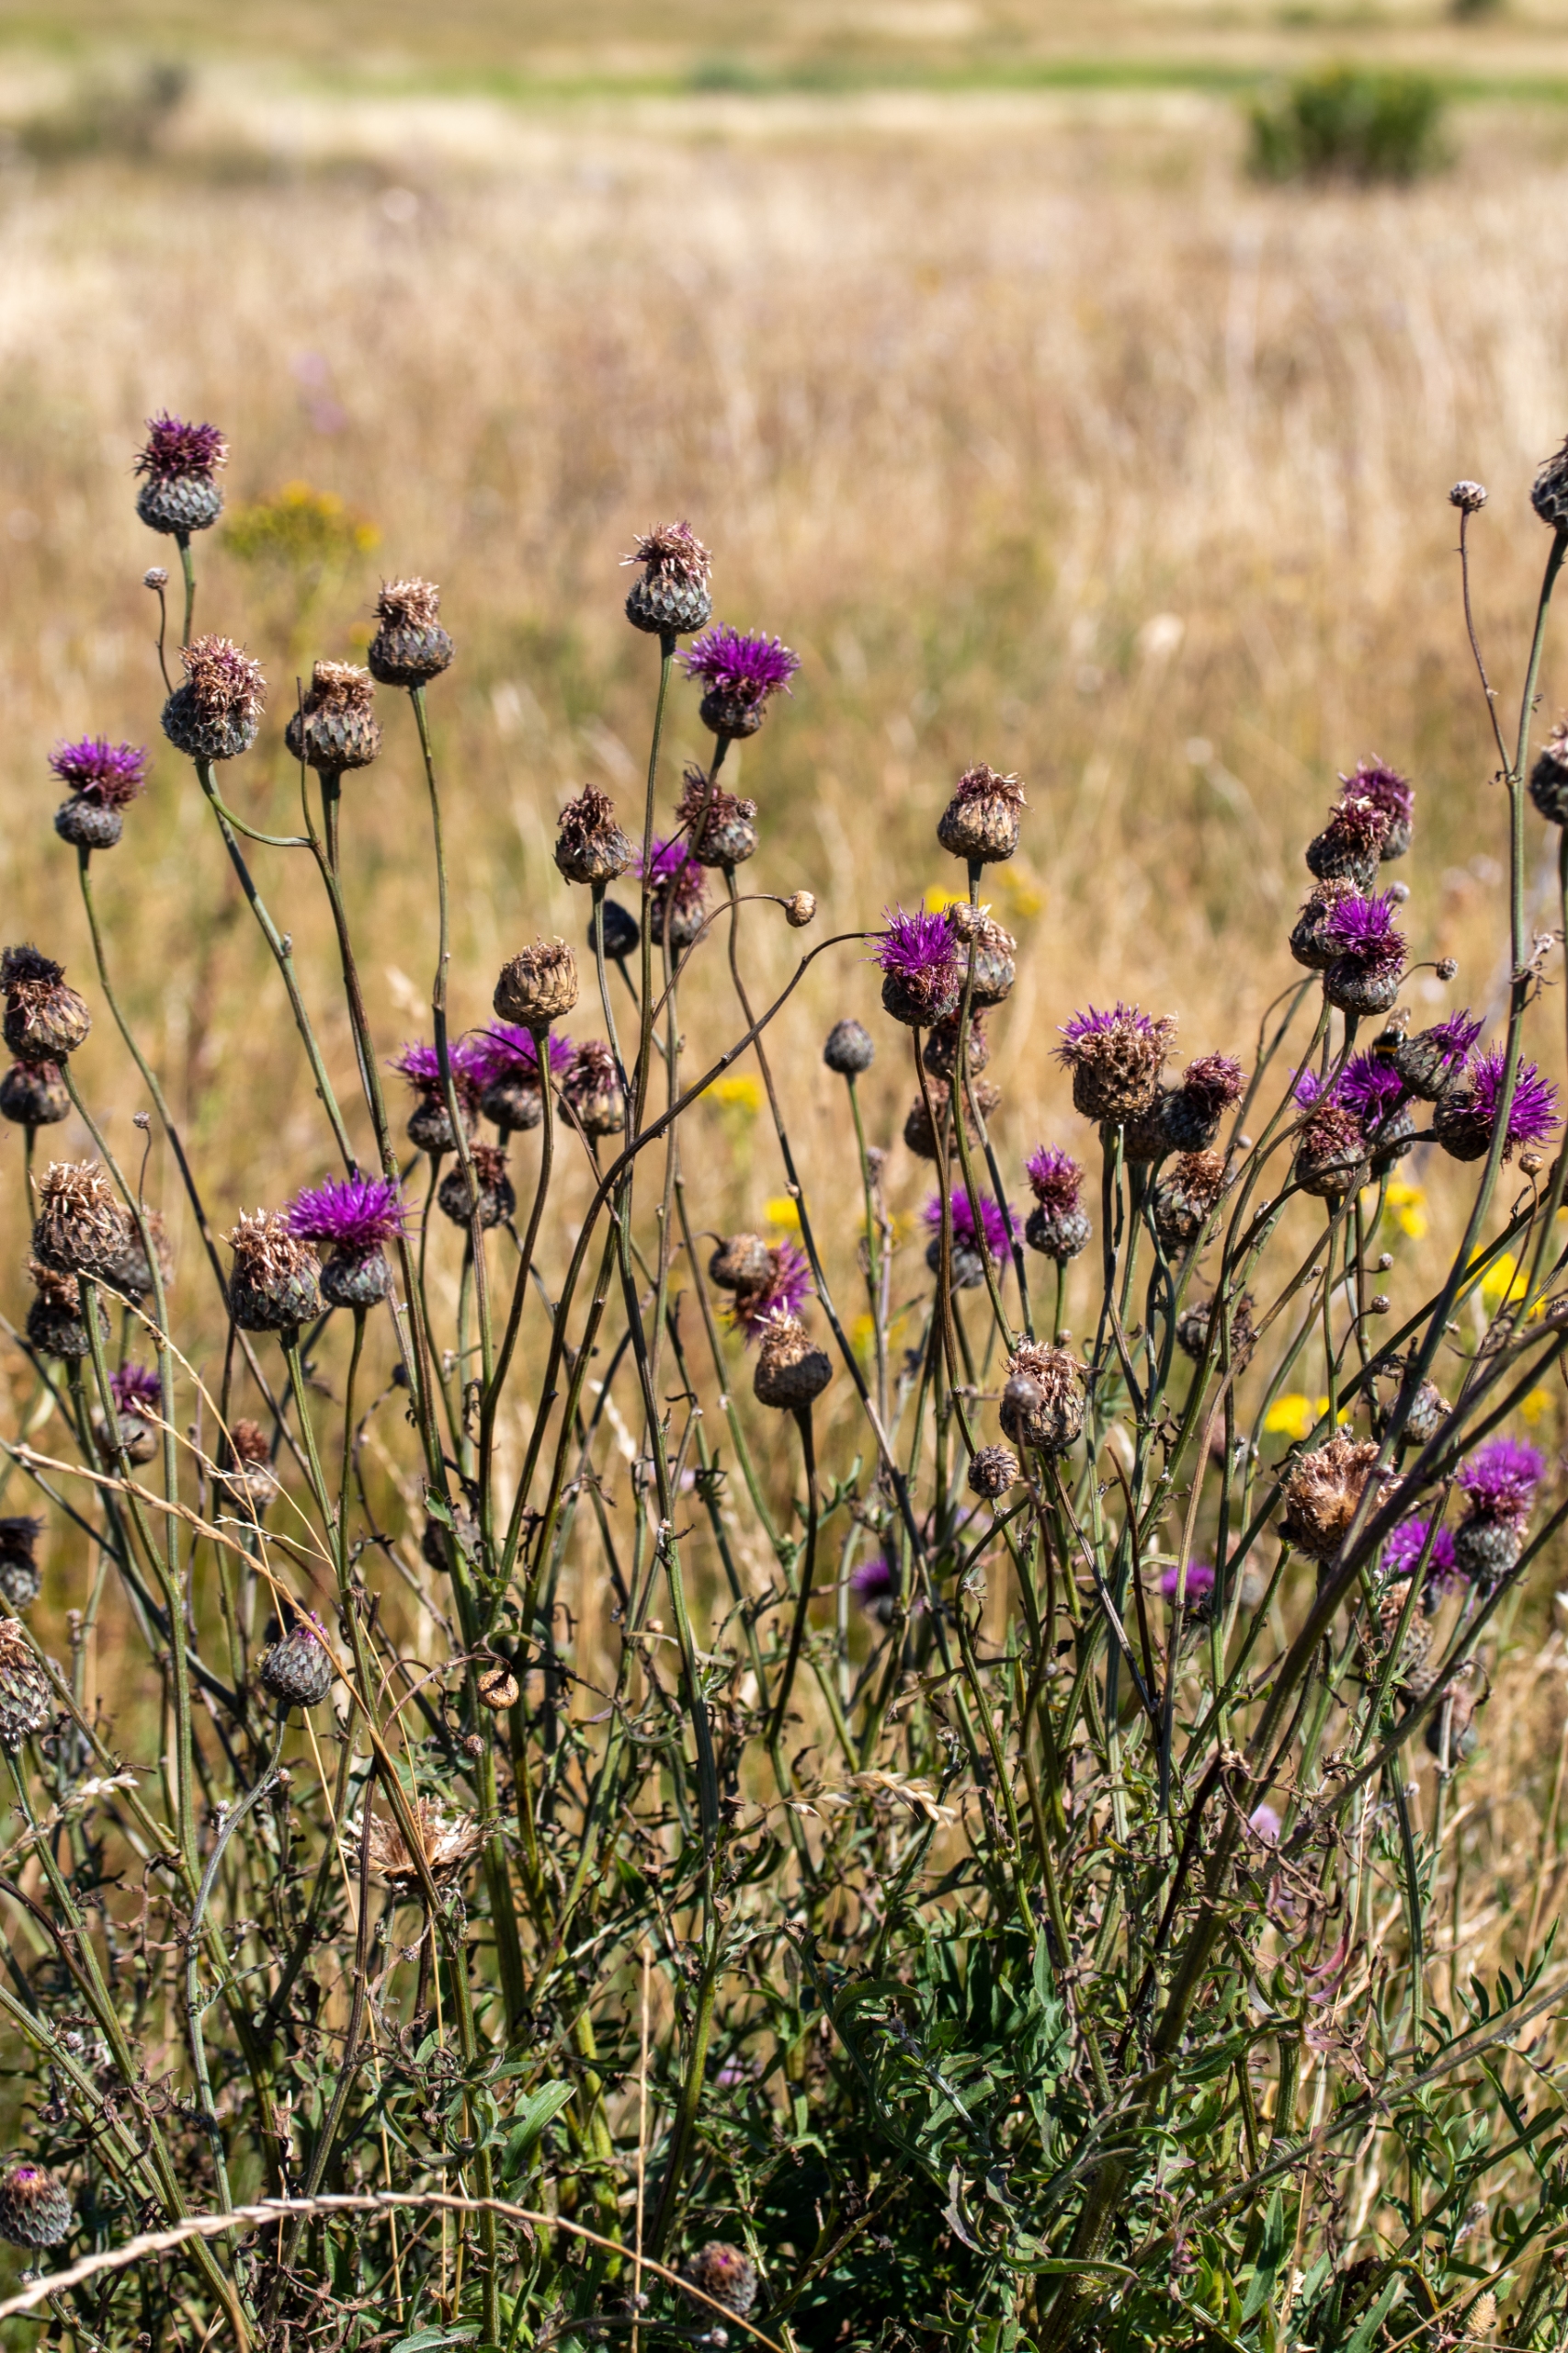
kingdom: Plantae
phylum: Tracheophyta
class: Magnoliopsida
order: Asterales
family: Asteraceae
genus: Centaurea
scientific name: Centaurea scabiosa
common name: Stor knopurt
